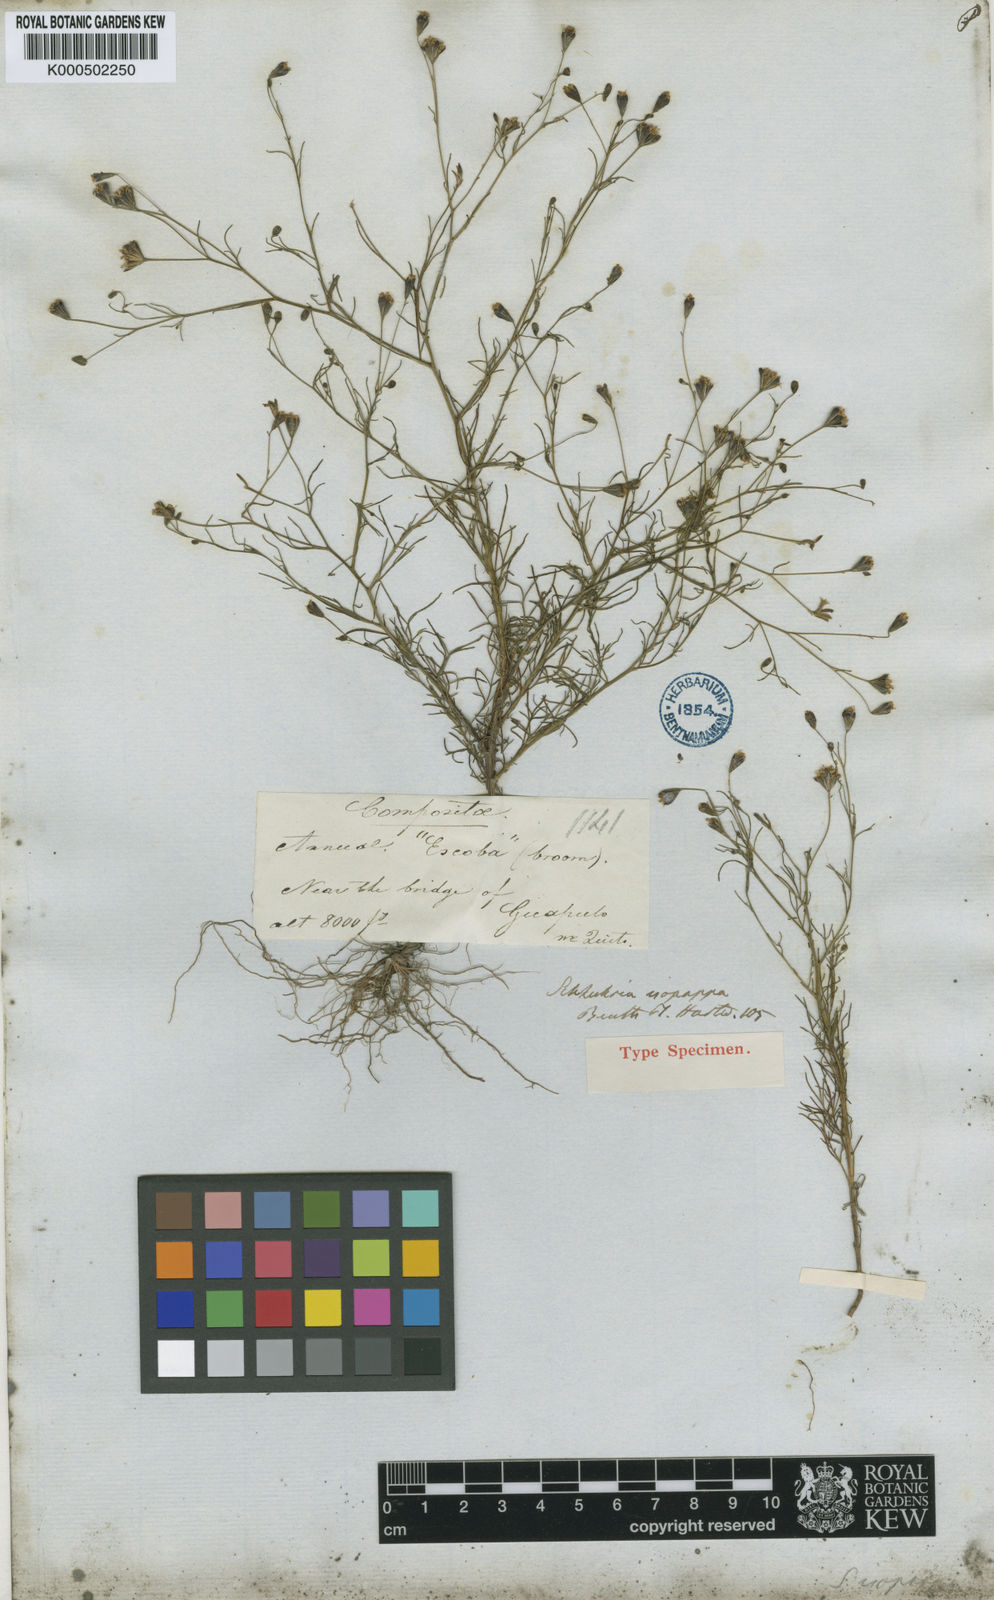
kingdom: Plantae
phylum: Tracheophyta
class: Magnoliopsida
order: Asterales
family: Asteraceae
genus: Schkuhria
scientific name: Schkuhria pinnata
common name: Dwarf marigold
